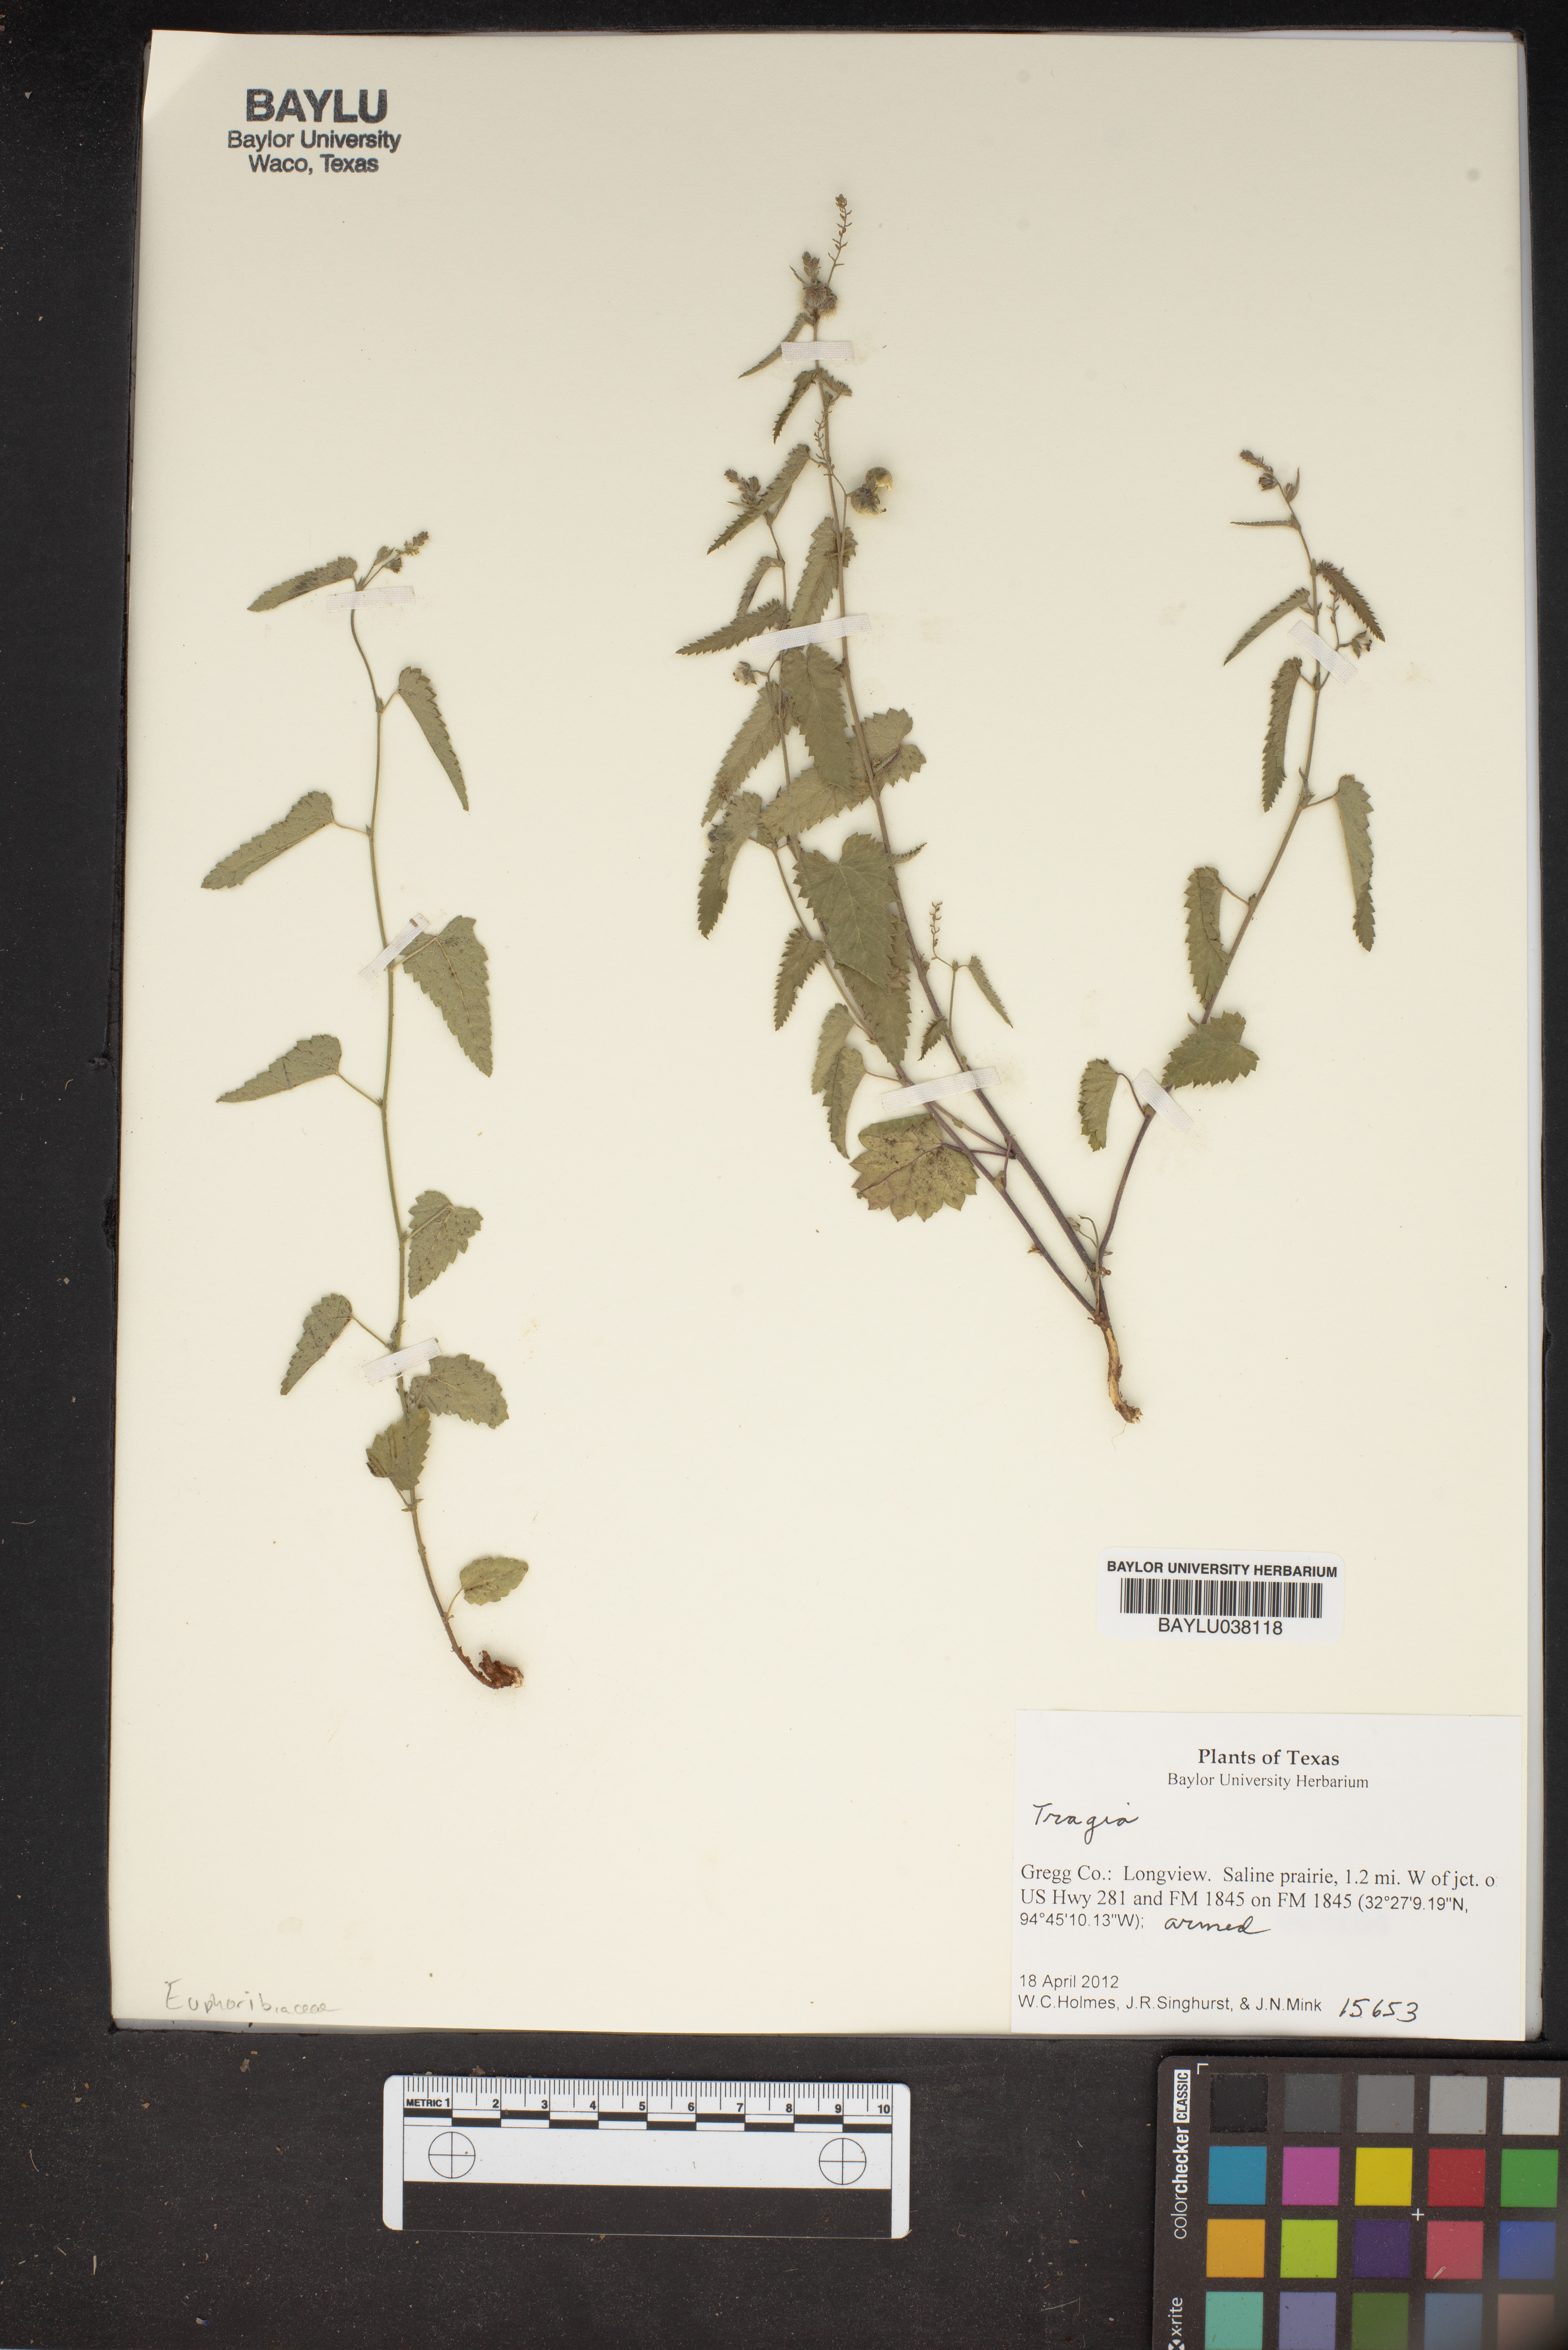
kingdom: Plantae
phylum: Tracheophyta
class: Magnoliopsida
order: Malpighiales
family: Euphorbiaceae
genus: Tragia
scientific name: Tragia
